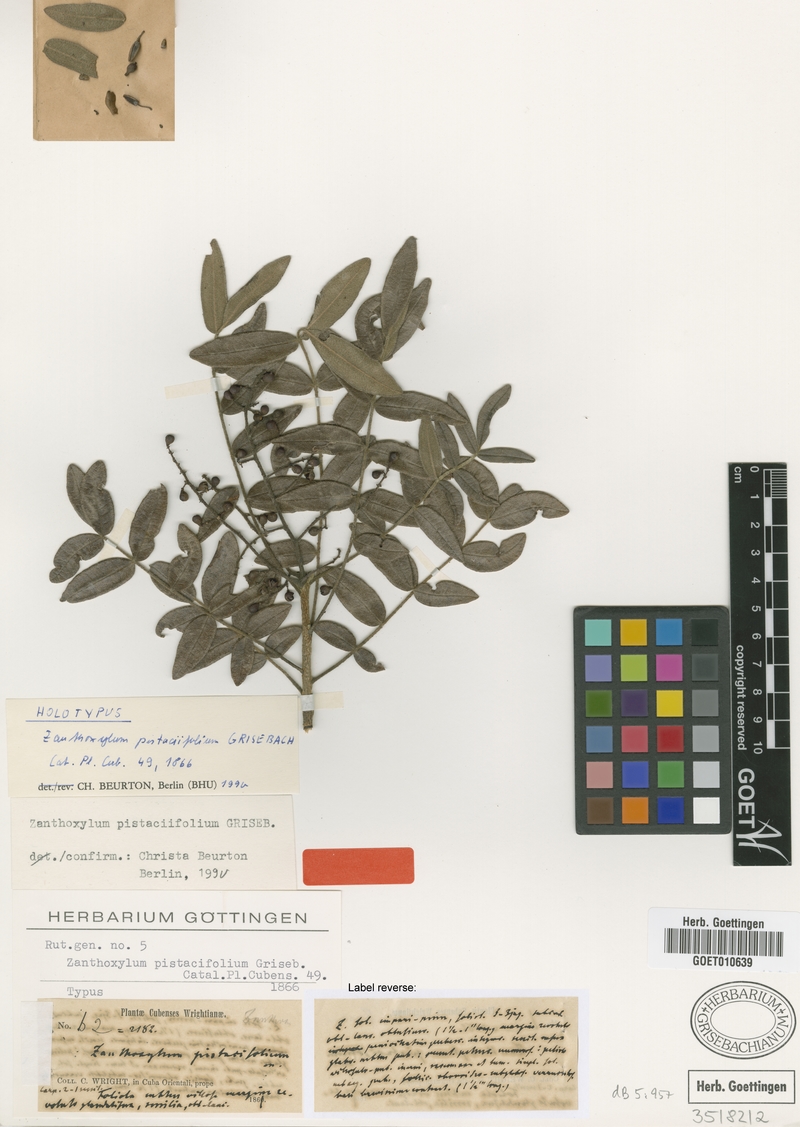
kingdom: Plantae
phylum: Tracheophyta
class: Magnoliopsida
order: Sapindales
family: Rutaceae
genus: Zanthoxylum
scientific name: Zanthoxylum flavum
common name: West indian satinwood
